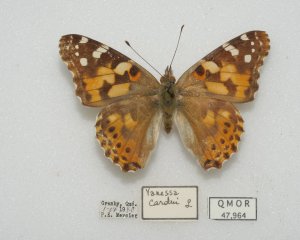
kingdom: Animalia
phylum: Arthropoda
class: Insecta
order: Lepidoptera
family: Nymphalidae
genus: Vanessa
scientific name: Vanessa cardui
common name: Painted Lady
